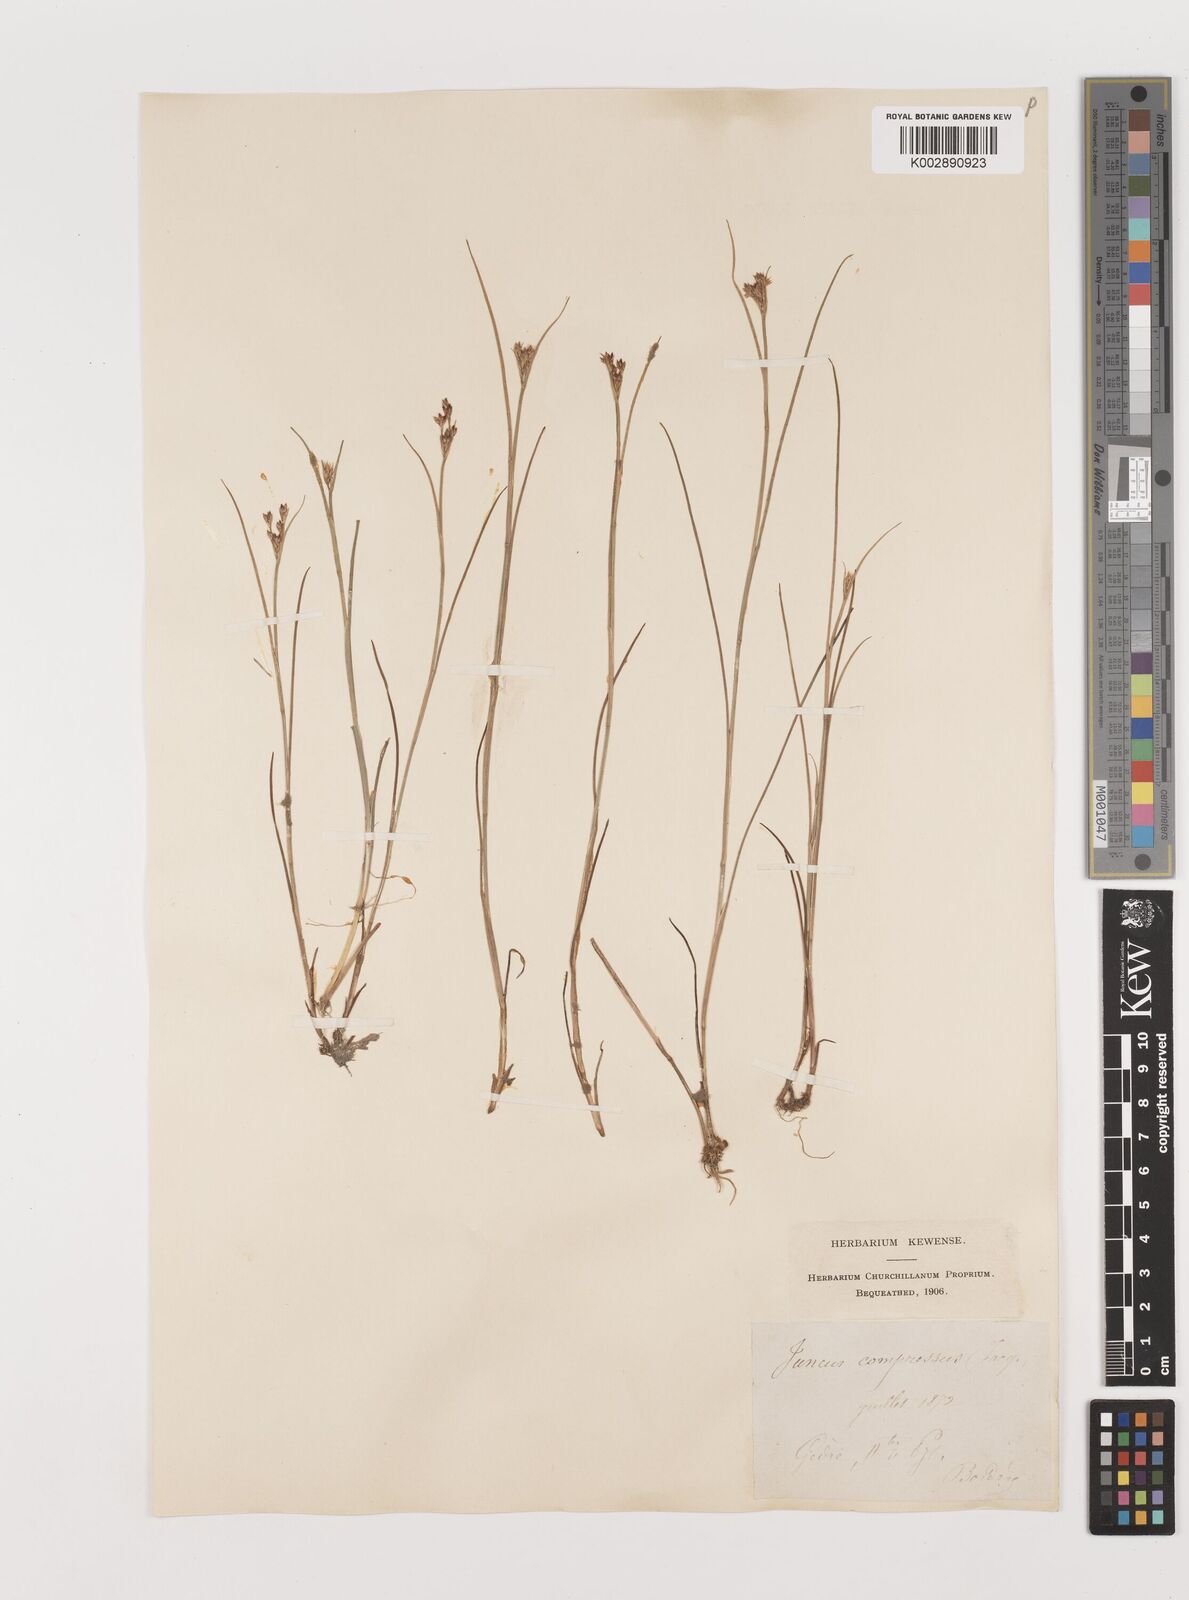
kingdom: Plantae
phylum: Tracheophyta
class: Liliopsida
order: Poales
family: Juncaceae
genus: Juncus
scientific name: Juncus
